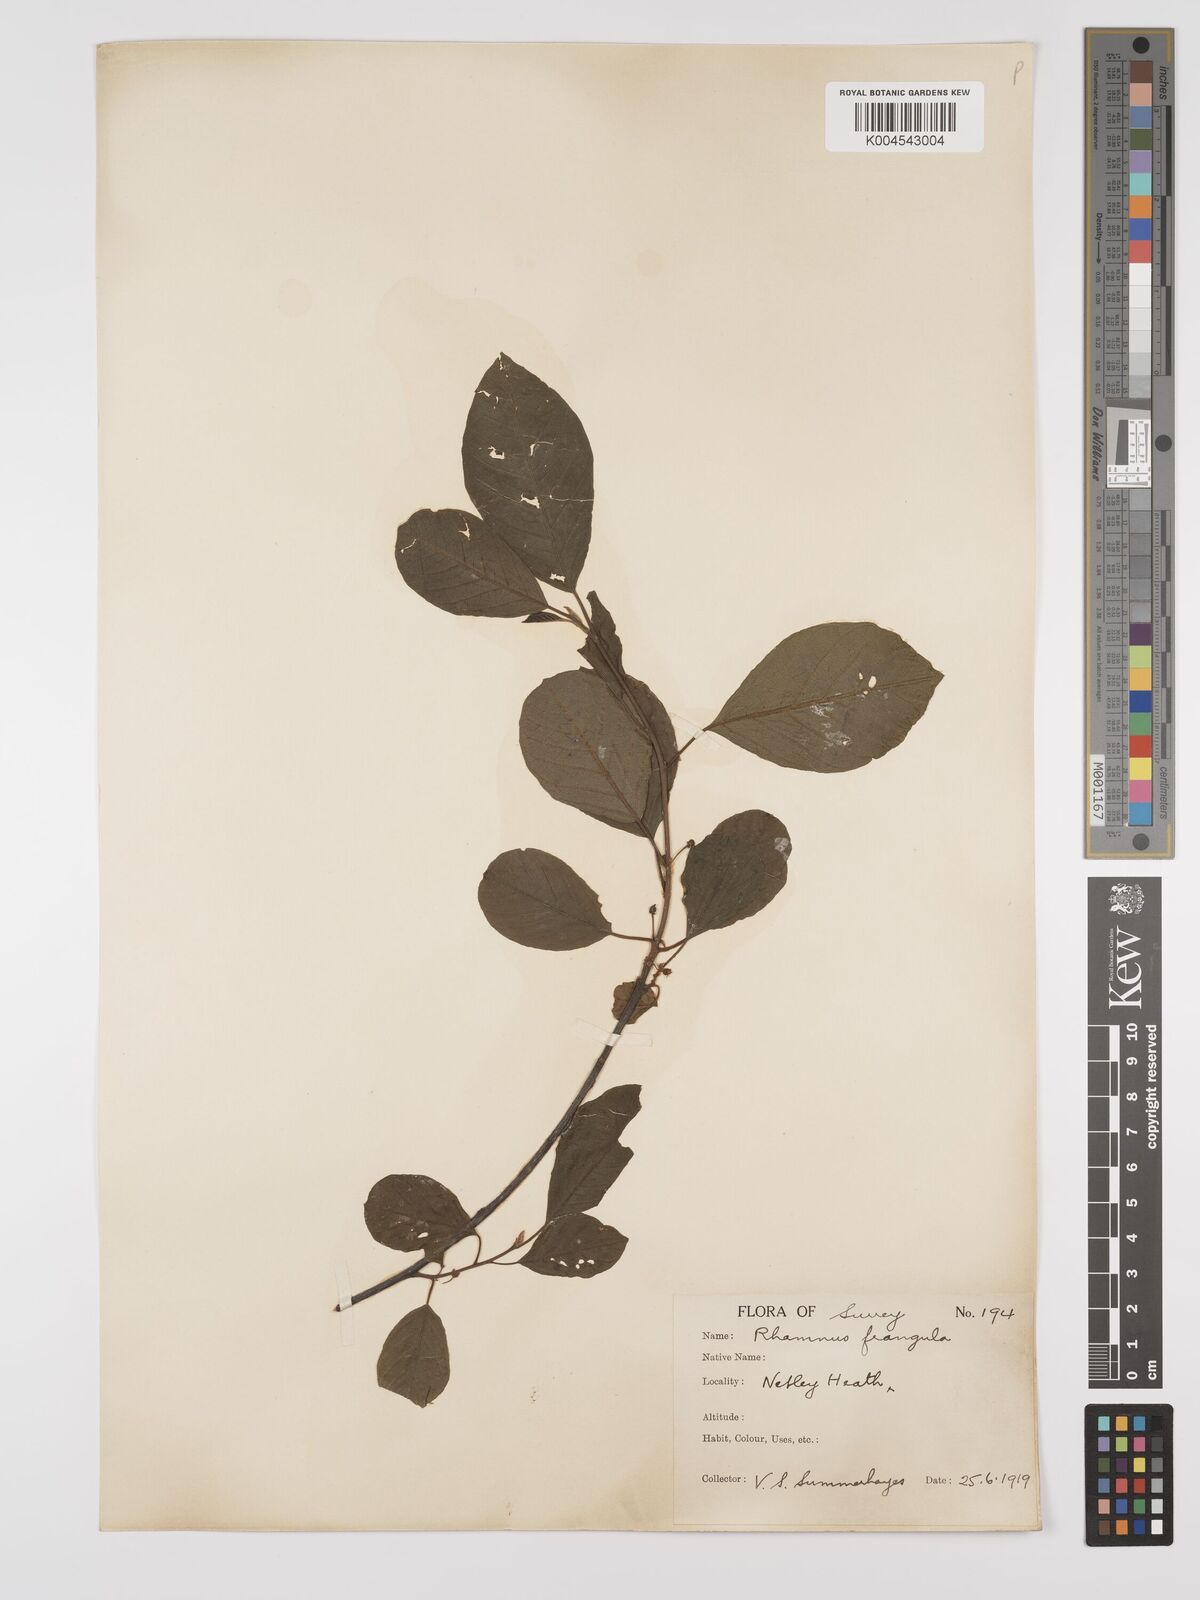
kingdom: Plantae
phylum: Tracheophyta
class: Magnoliopsida
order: Rosales
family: Rhamnaceae
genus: Frangula
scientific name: Frangula alnus
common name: Alder buckthorn
